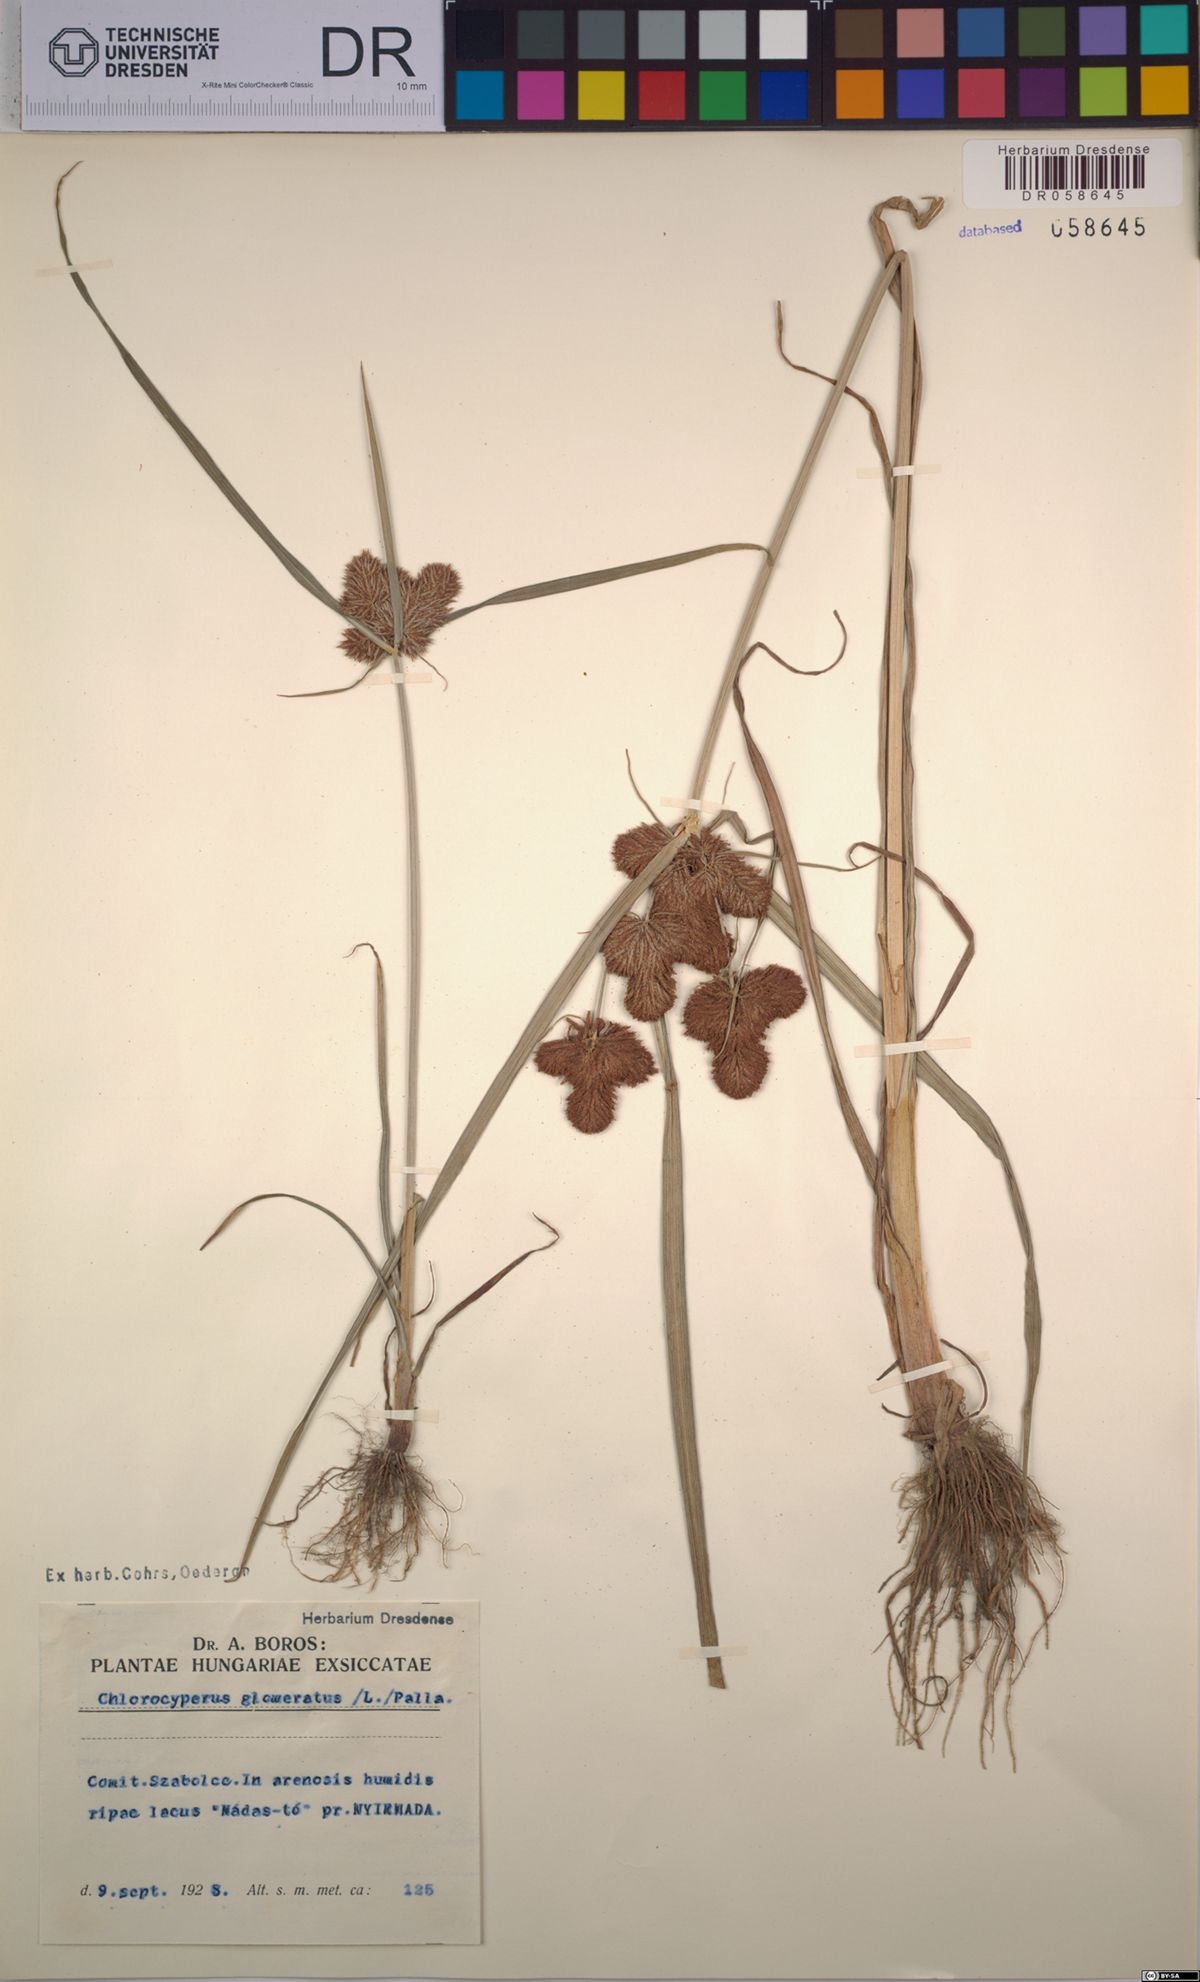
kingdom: Plantae
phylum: Tracheophyta
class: Liliopsida
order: Poales
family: Cyperaceae
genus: Cyperus
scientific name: Cyperus glomeratus
